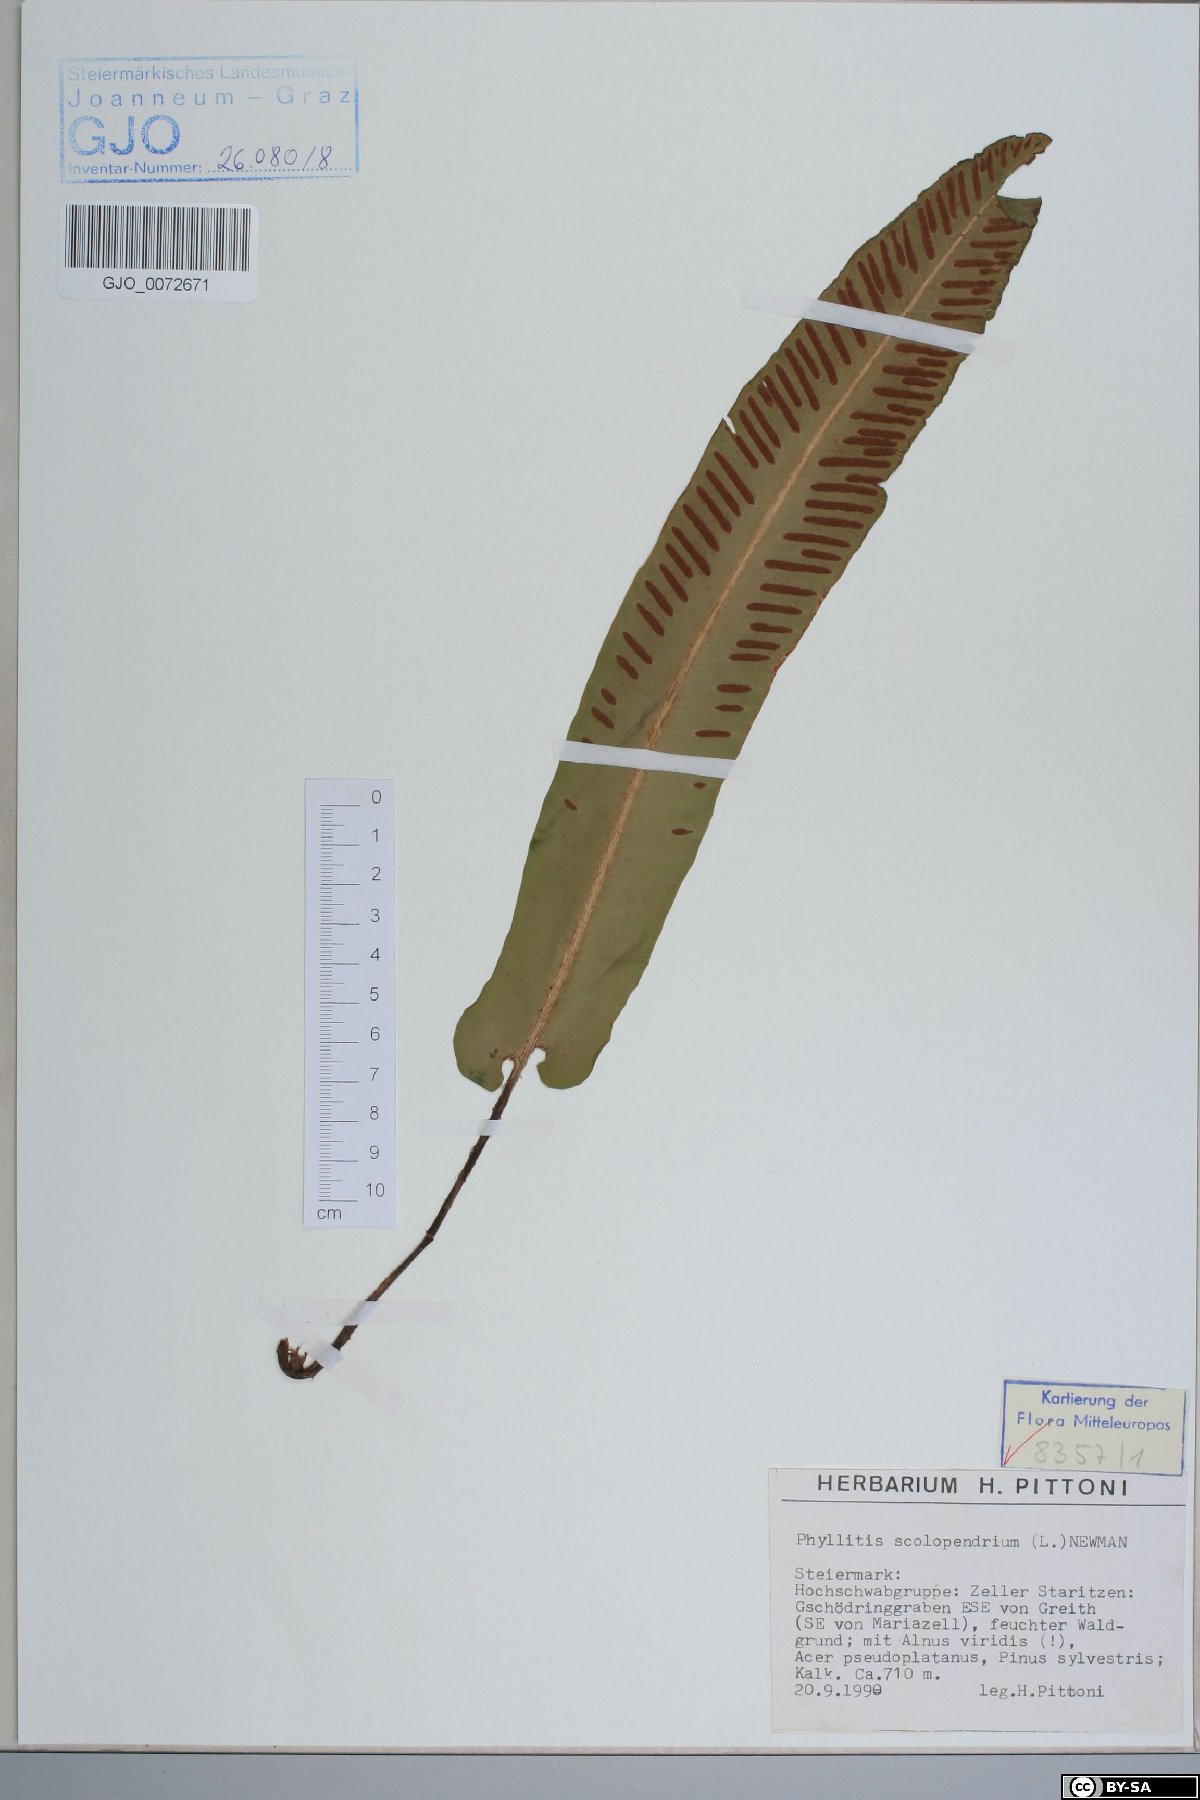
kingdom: Plantae
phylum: Tracheophyta
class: Polypodiopsida
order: Polypodiales
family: Aspleniaceae
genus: Asplenium
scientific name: Asplenium scolopendrium
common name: Hart's-tongue fern
